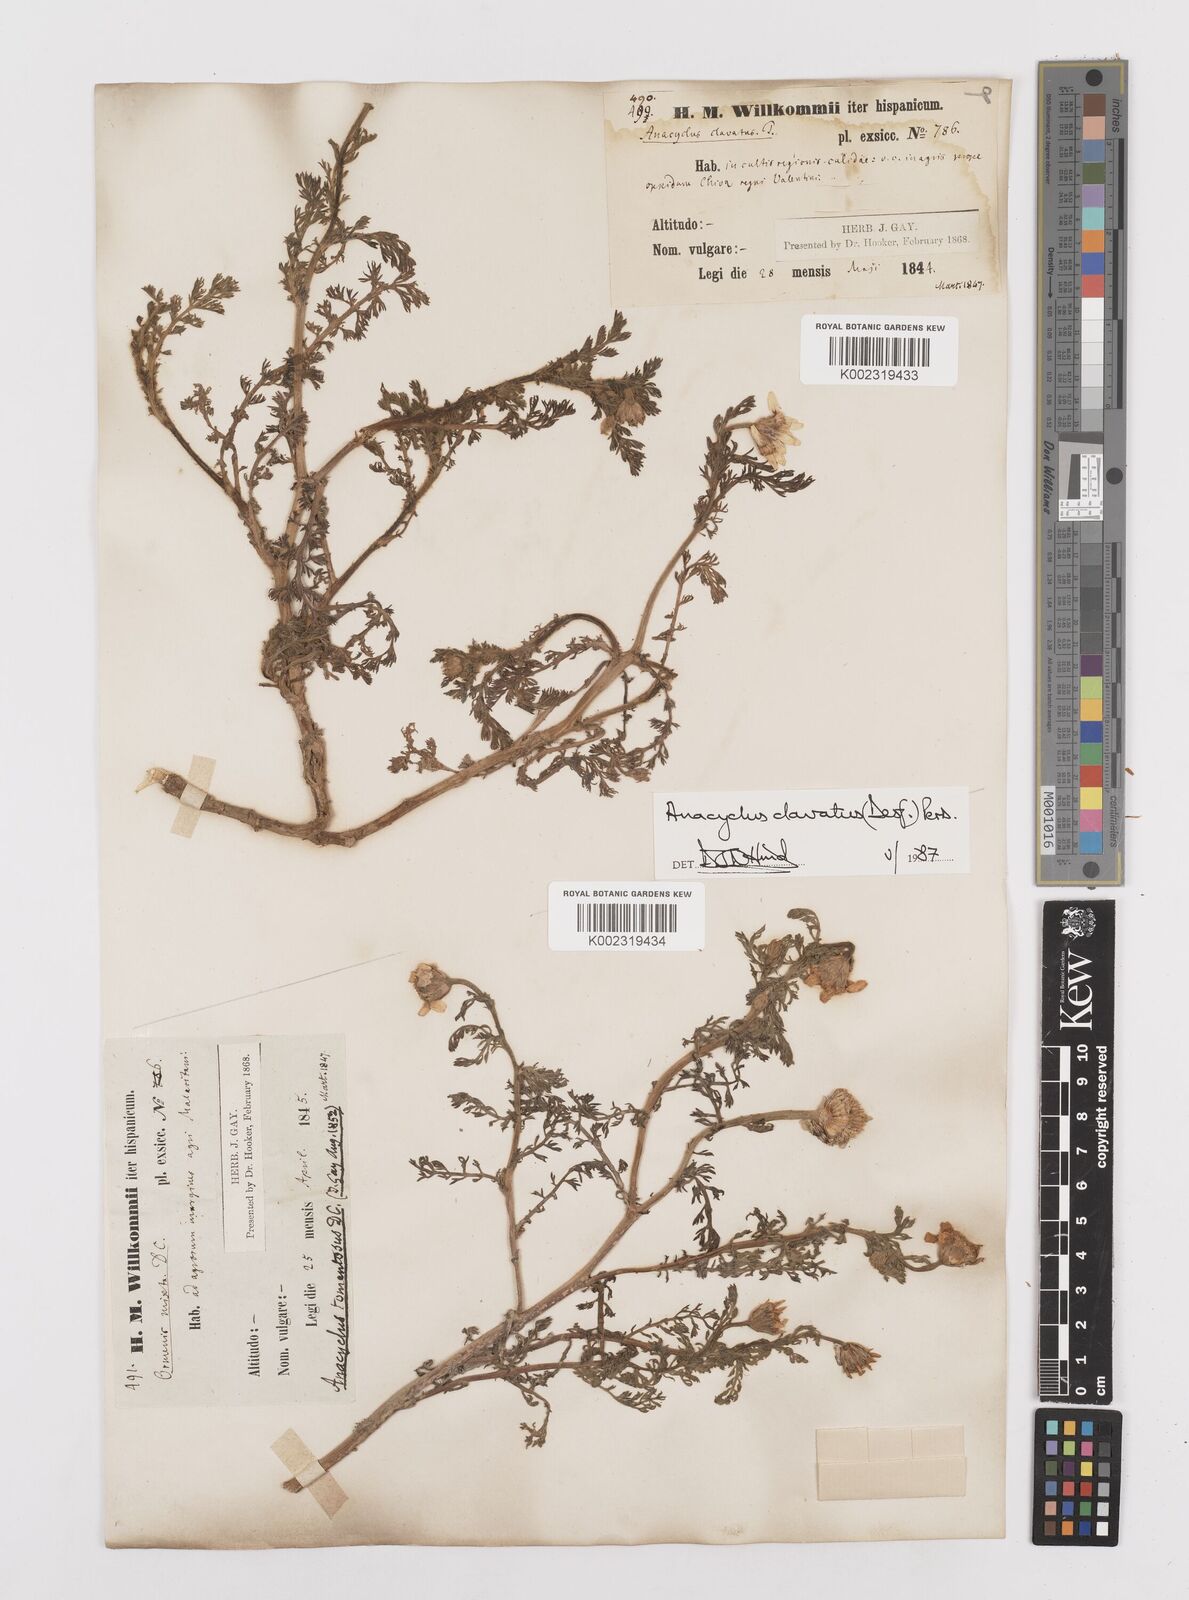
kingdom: Plantae
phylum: Tracheophyta
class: Magnoliopsida
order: Asterales
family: Asteraceae
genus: Anacyclus
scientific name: Anacyclus clavatus
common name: Whitebuttons
